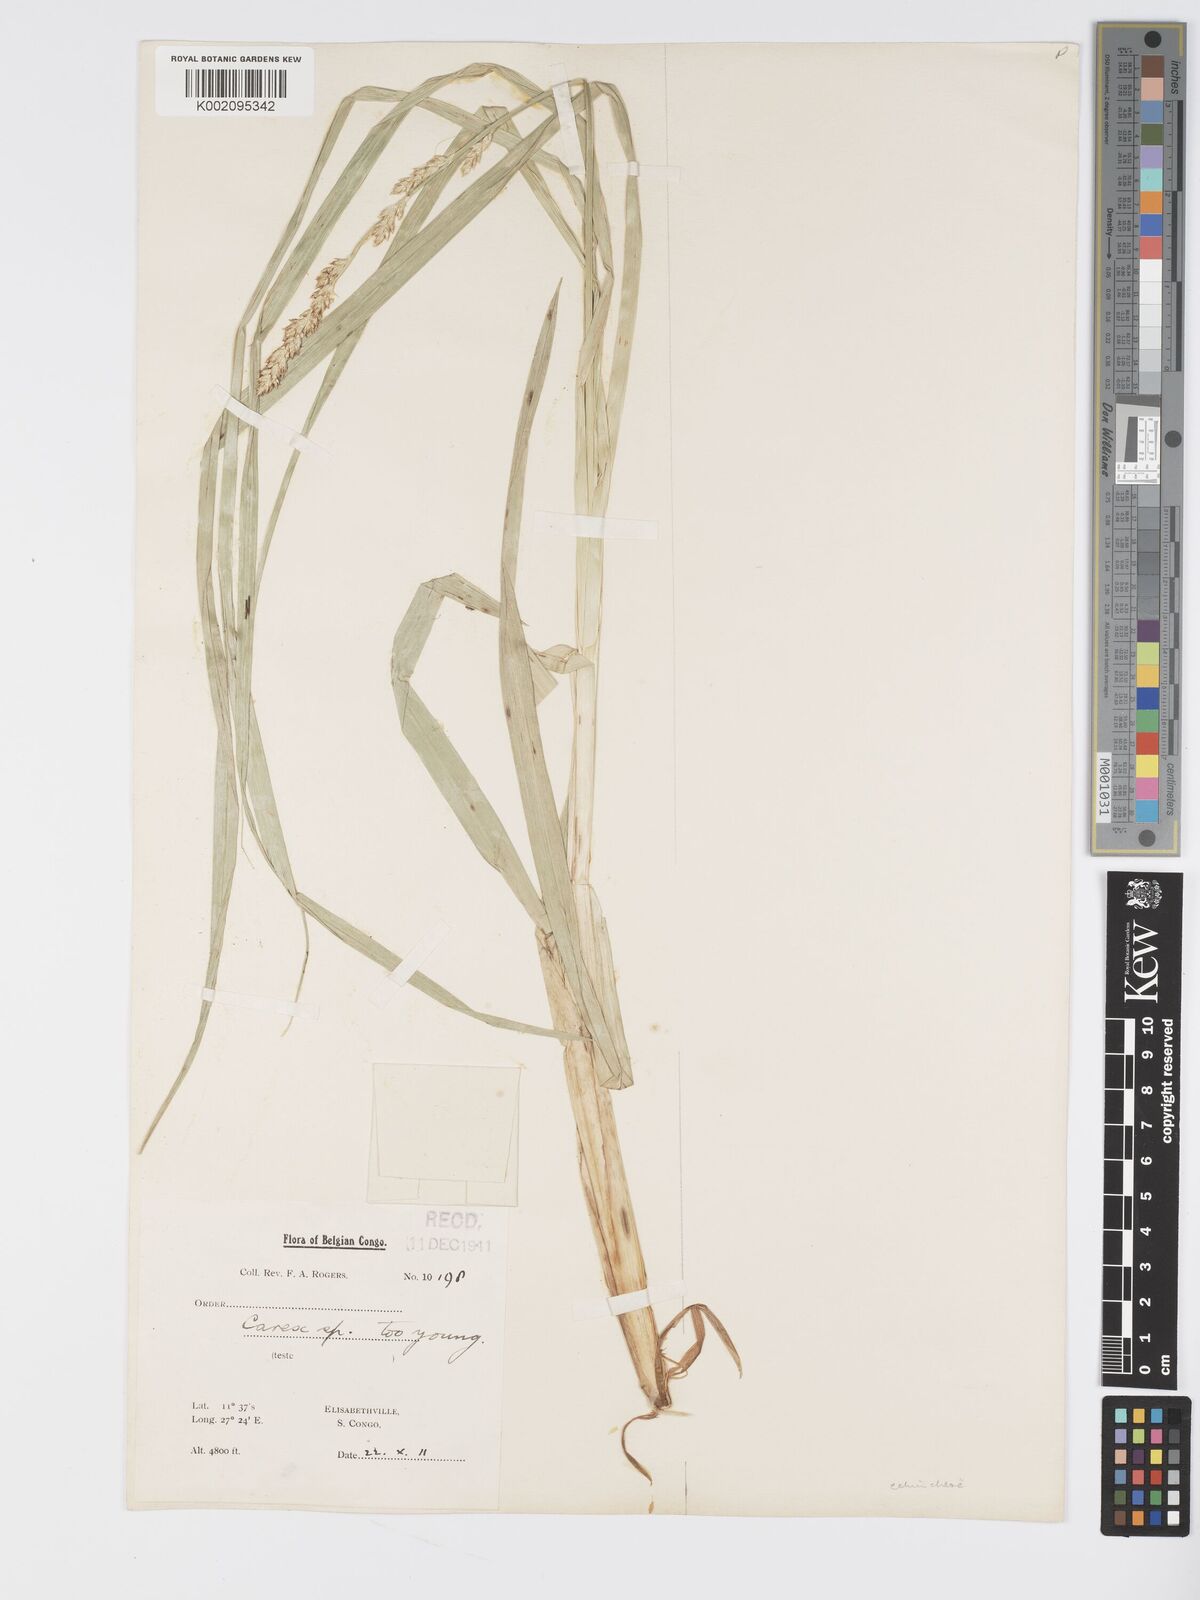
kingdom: Plantae
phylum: Tracheophyta
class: Liliopsida
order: Poales
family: Cyperaceae
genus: Carex
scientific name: Carex echinochloe
